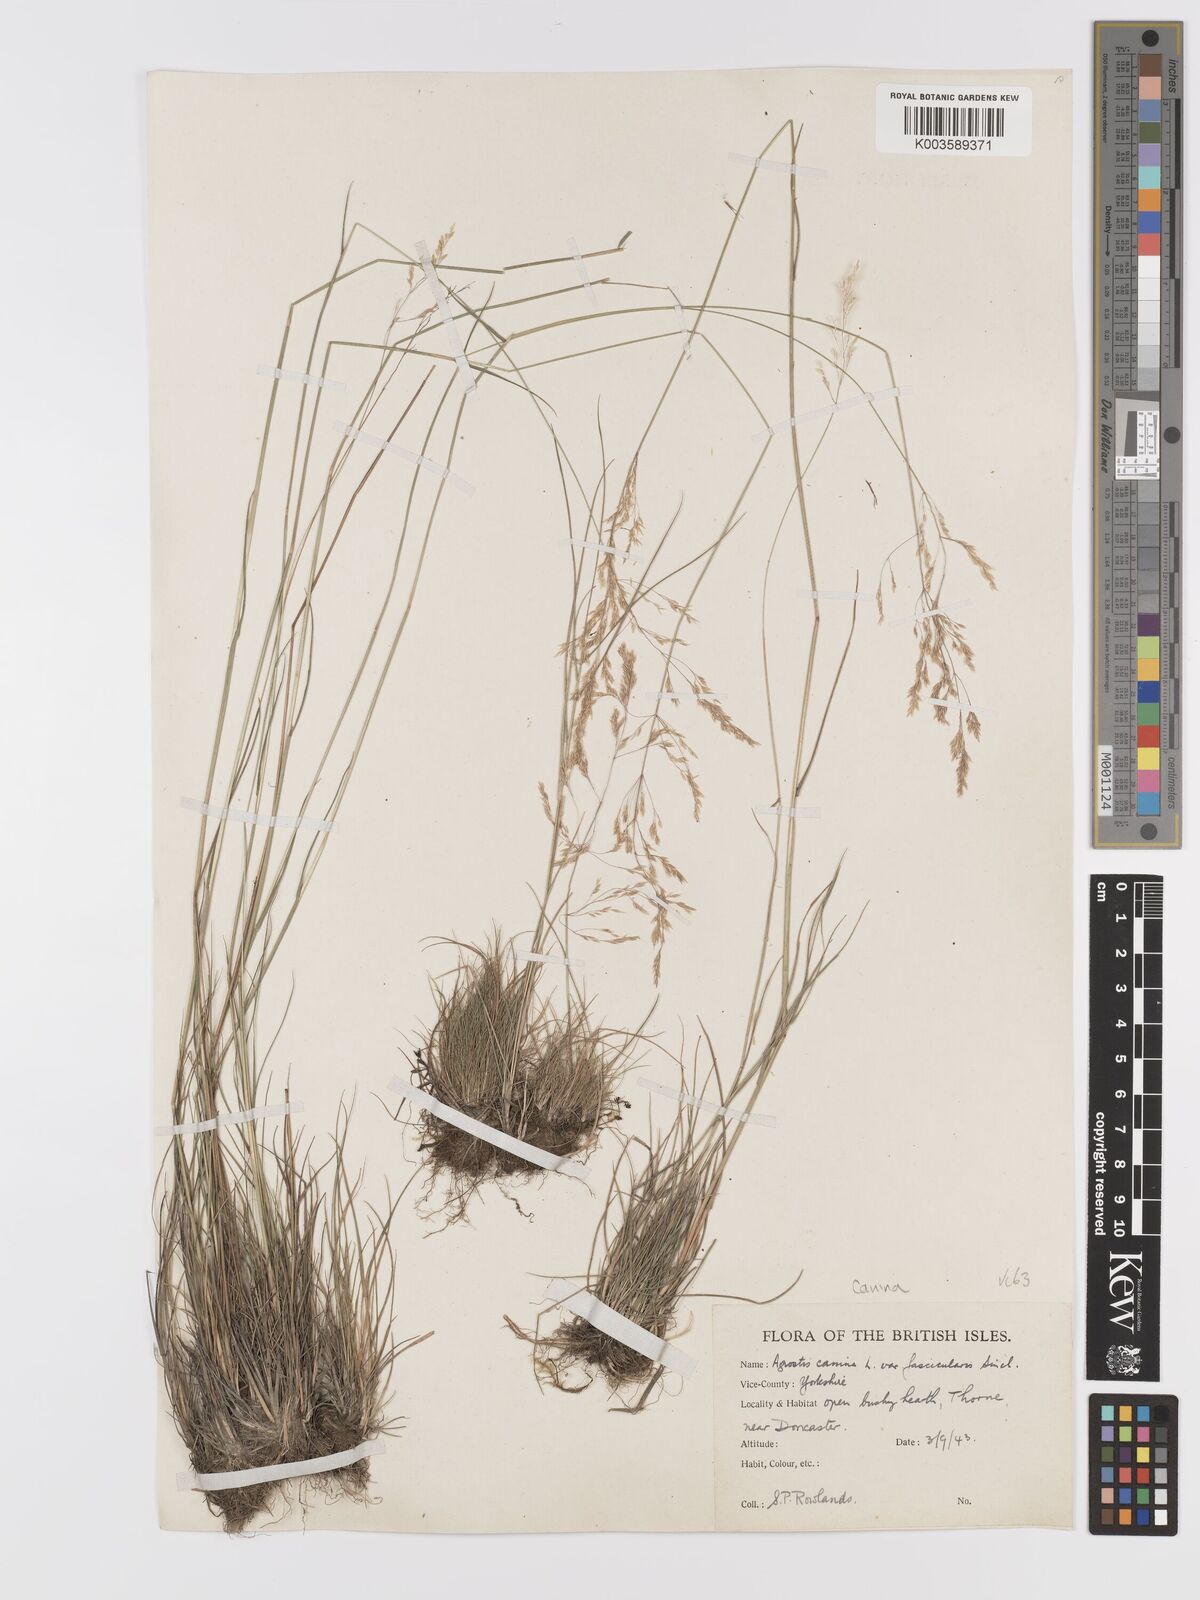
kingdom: Plantae
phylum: Tracheophyta
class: Liliopsida
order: Poales
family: Poaceae
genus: Agrostis
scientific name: Agrostis canina
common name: Velvet bent
